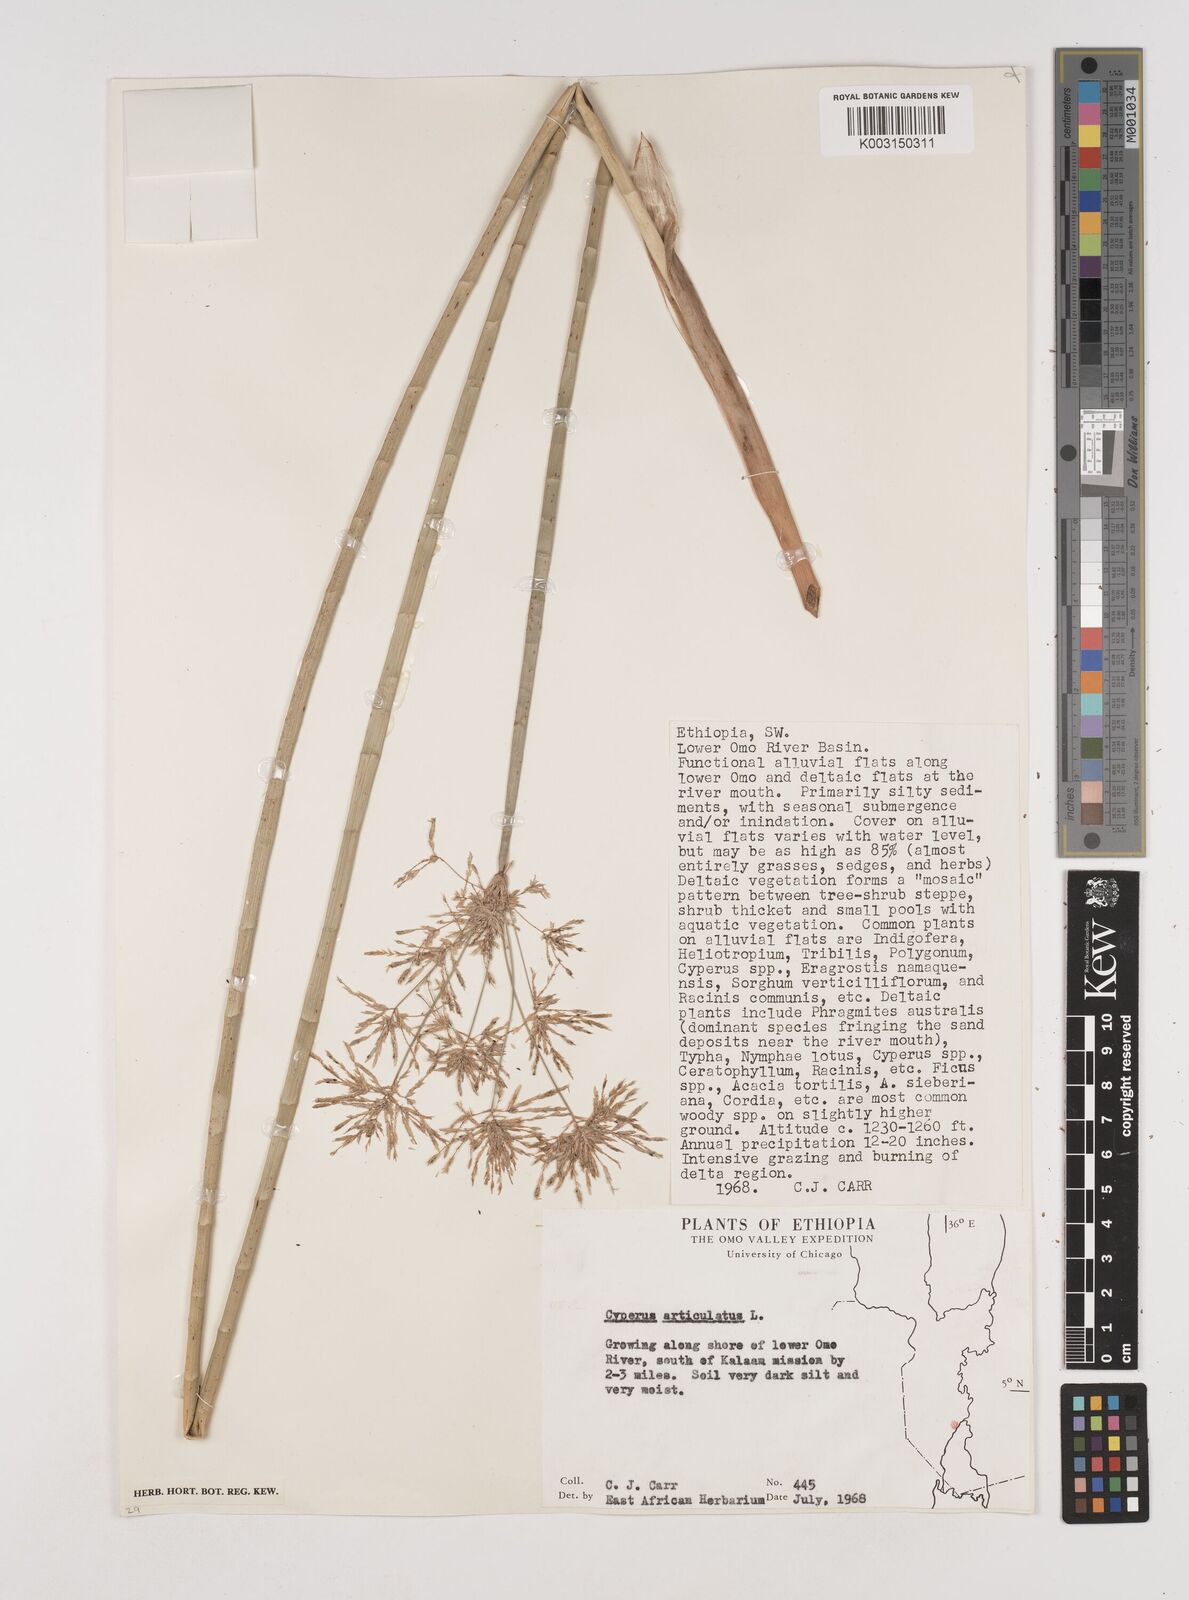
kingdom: Plantae
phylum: Tracheophyta
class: Liliopsida
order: Poales
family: Cyperaceae
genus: Cyperus
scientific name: Cyperus articulatus
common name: Jointed flatsedge
